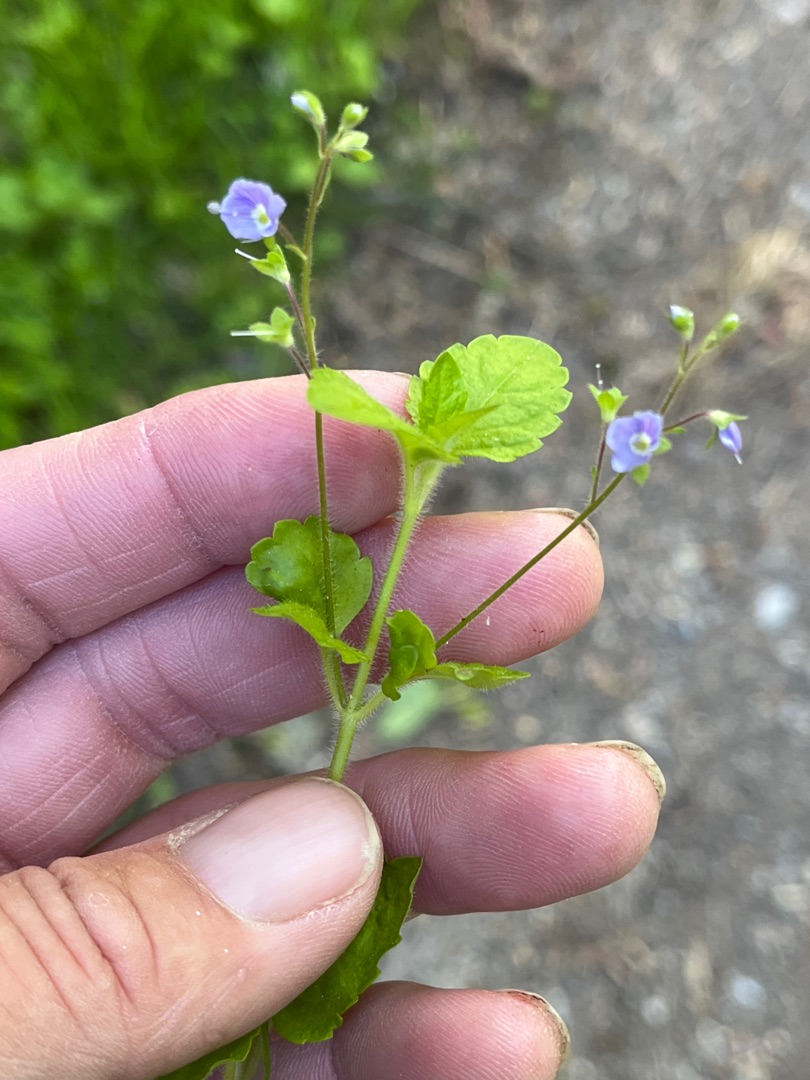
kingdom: Plantae
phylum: Tracheophyta
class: Magnoliopsida
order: Lamiales
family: Plantaginaceae
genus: Veronica
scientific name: Veronica montana
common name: Bjerg-ærenpris
